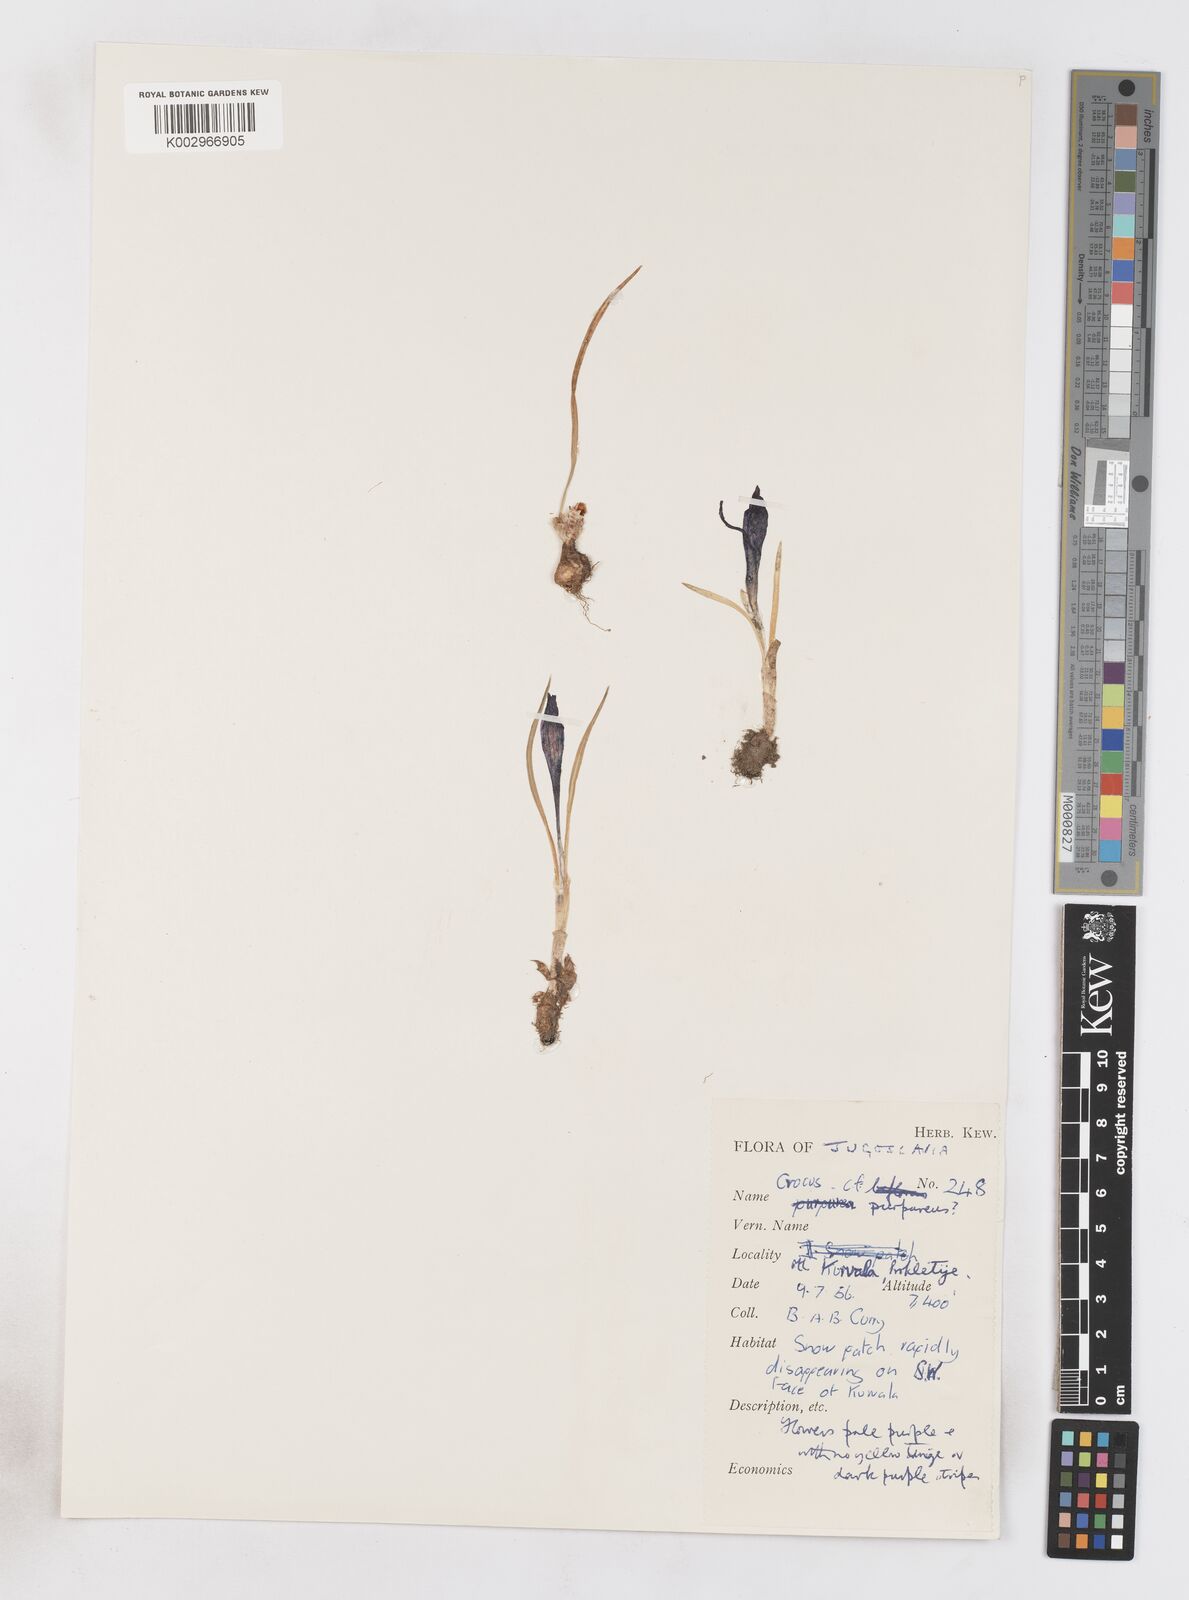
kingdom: Plantae
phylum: Tracheophyta
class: Liliopsida
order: Asparagales
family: Iridaceae
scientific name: Iridaceae
